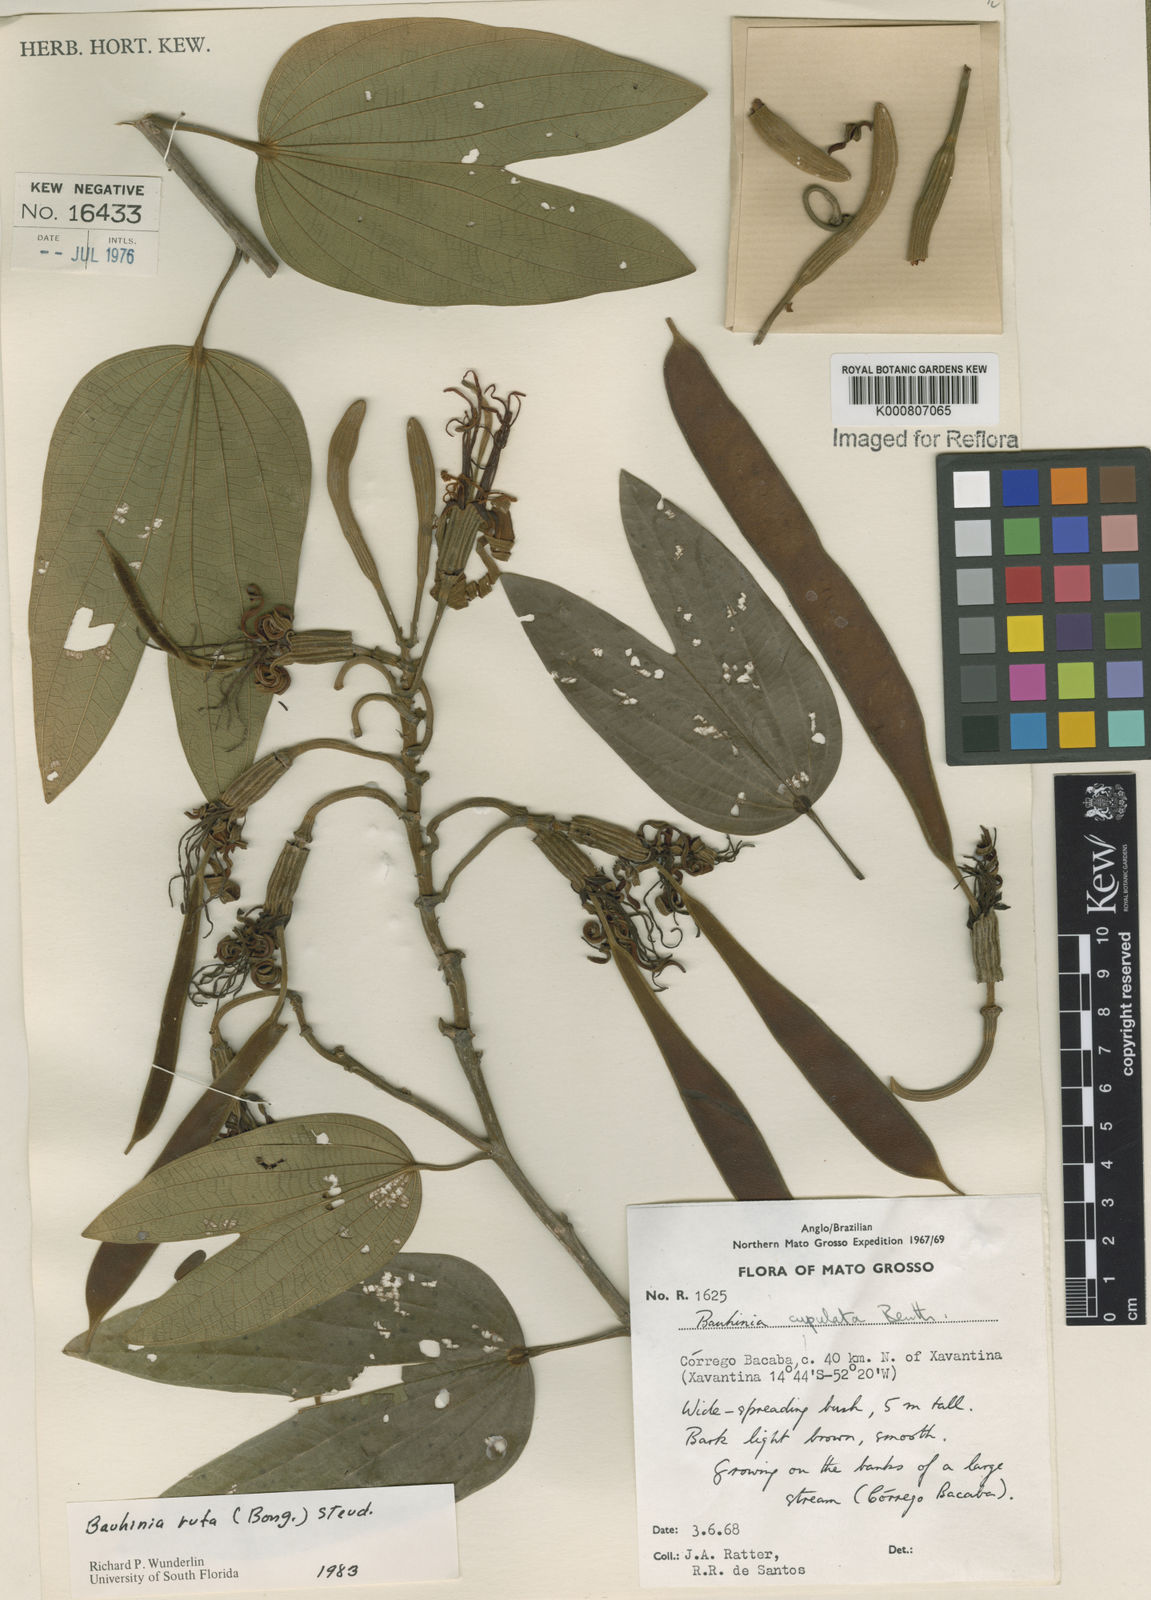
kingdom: Plantae
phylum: Tracheophyta
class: Magnoliopsida
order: Fabales
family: Fabaceae
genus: Bauhinia
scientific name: Bauhinia rufa
